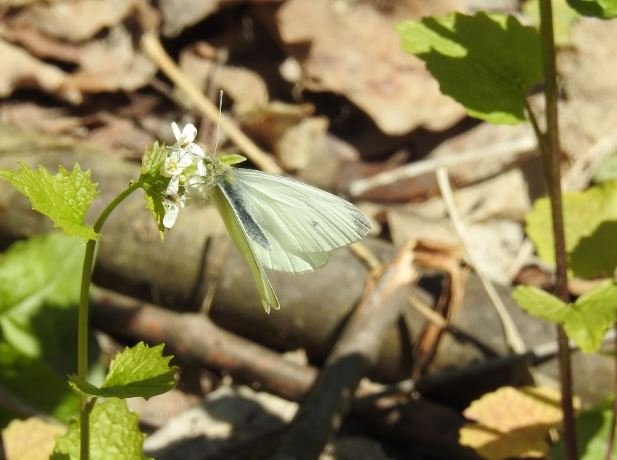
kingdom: Animalia
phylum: Arthropoda
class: Insecta
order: Lepidoptera
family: Pieridae
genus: Pieris
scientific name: Pieris rapae
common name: Cabbage White
